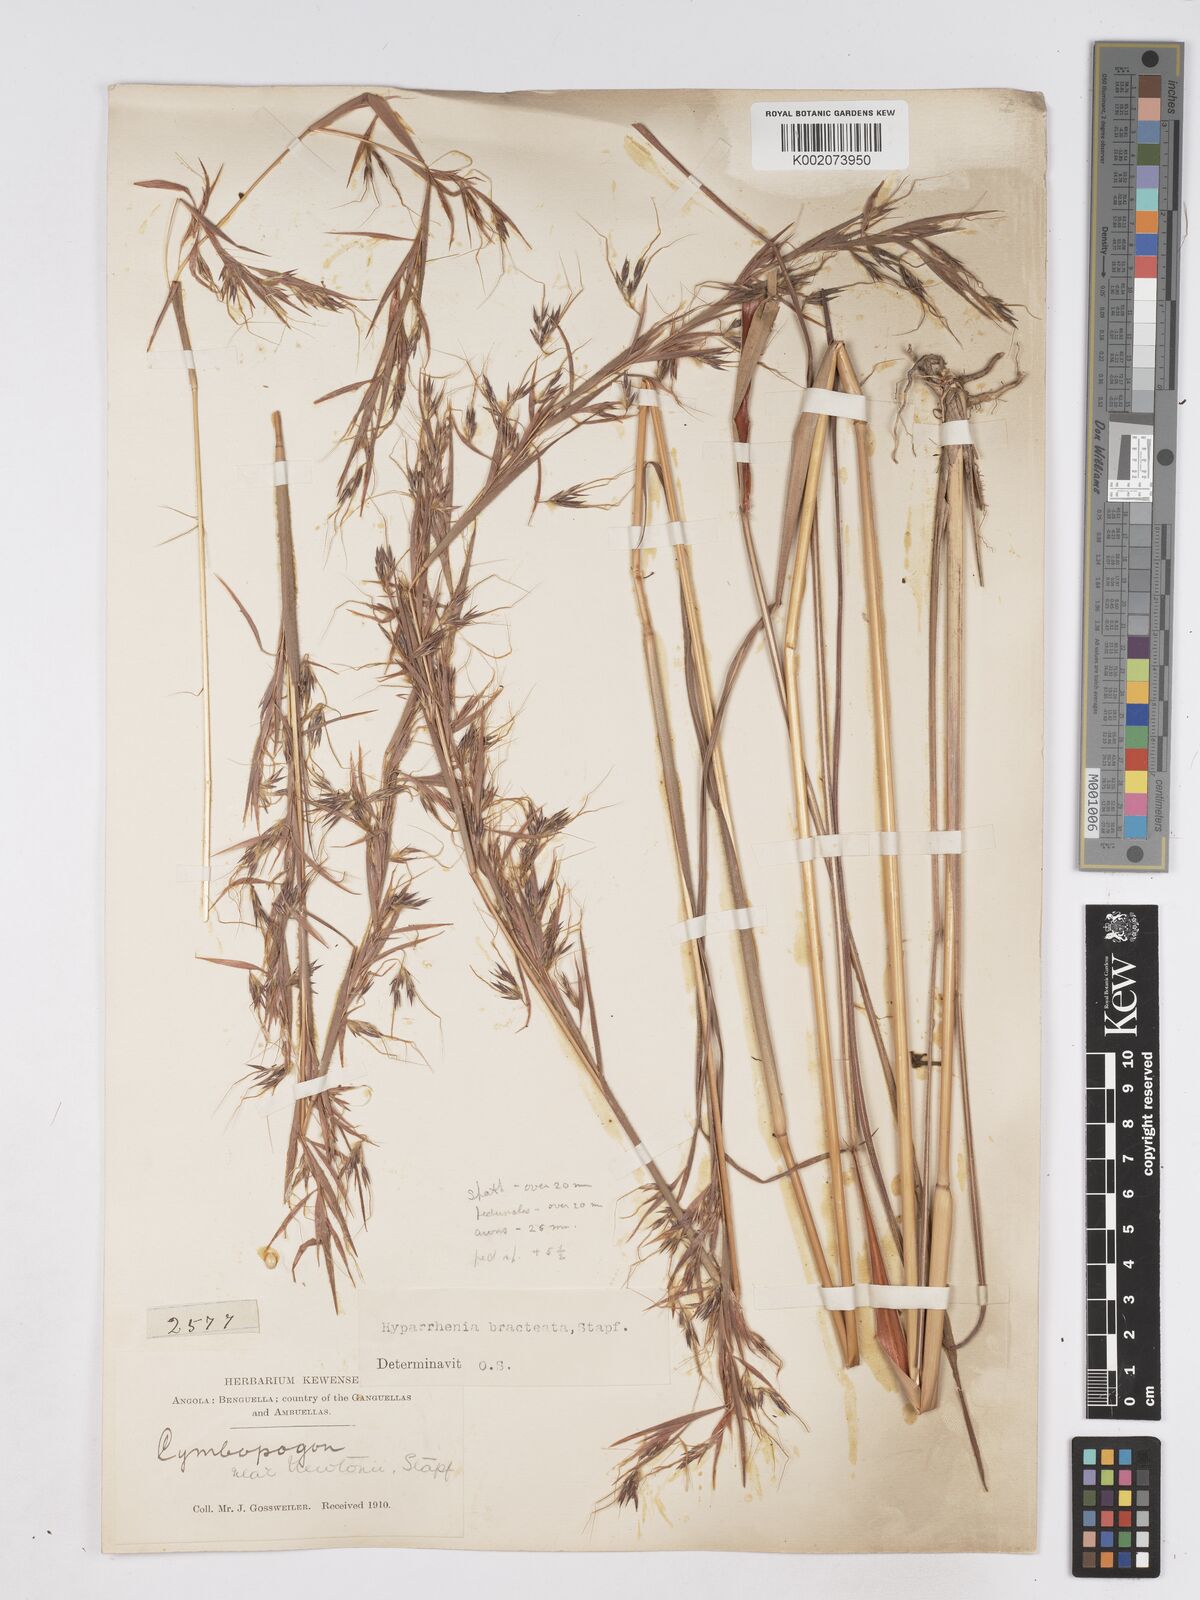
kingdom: Plantae
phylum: Tracheophyta
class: Liliopsida
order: Poales
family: Poaceae
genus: Hyparrhenia
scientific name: Hyparrhenia bracteata
